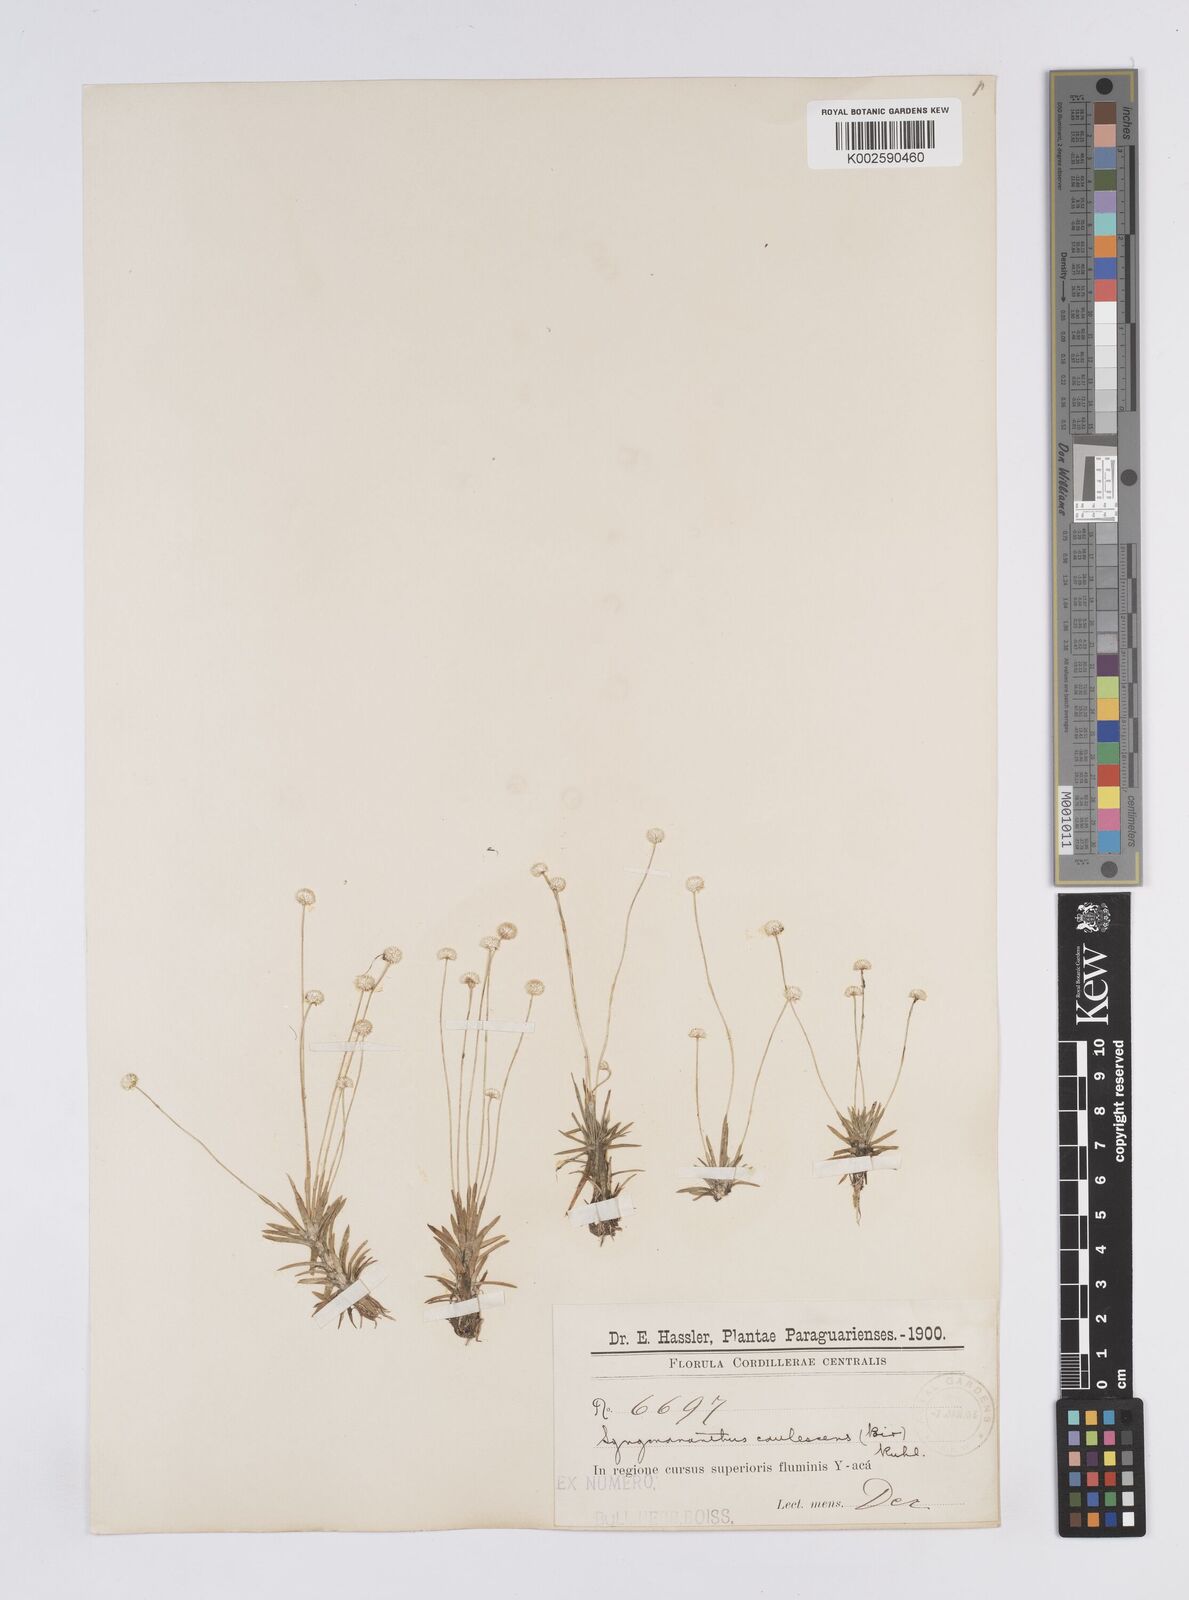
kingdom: Plantae
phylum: Tracheophyta
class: Liliopsida
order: Poales
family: Eriocaulaceae
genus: Syngonanthus
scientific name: Syngonanthus caulescens
